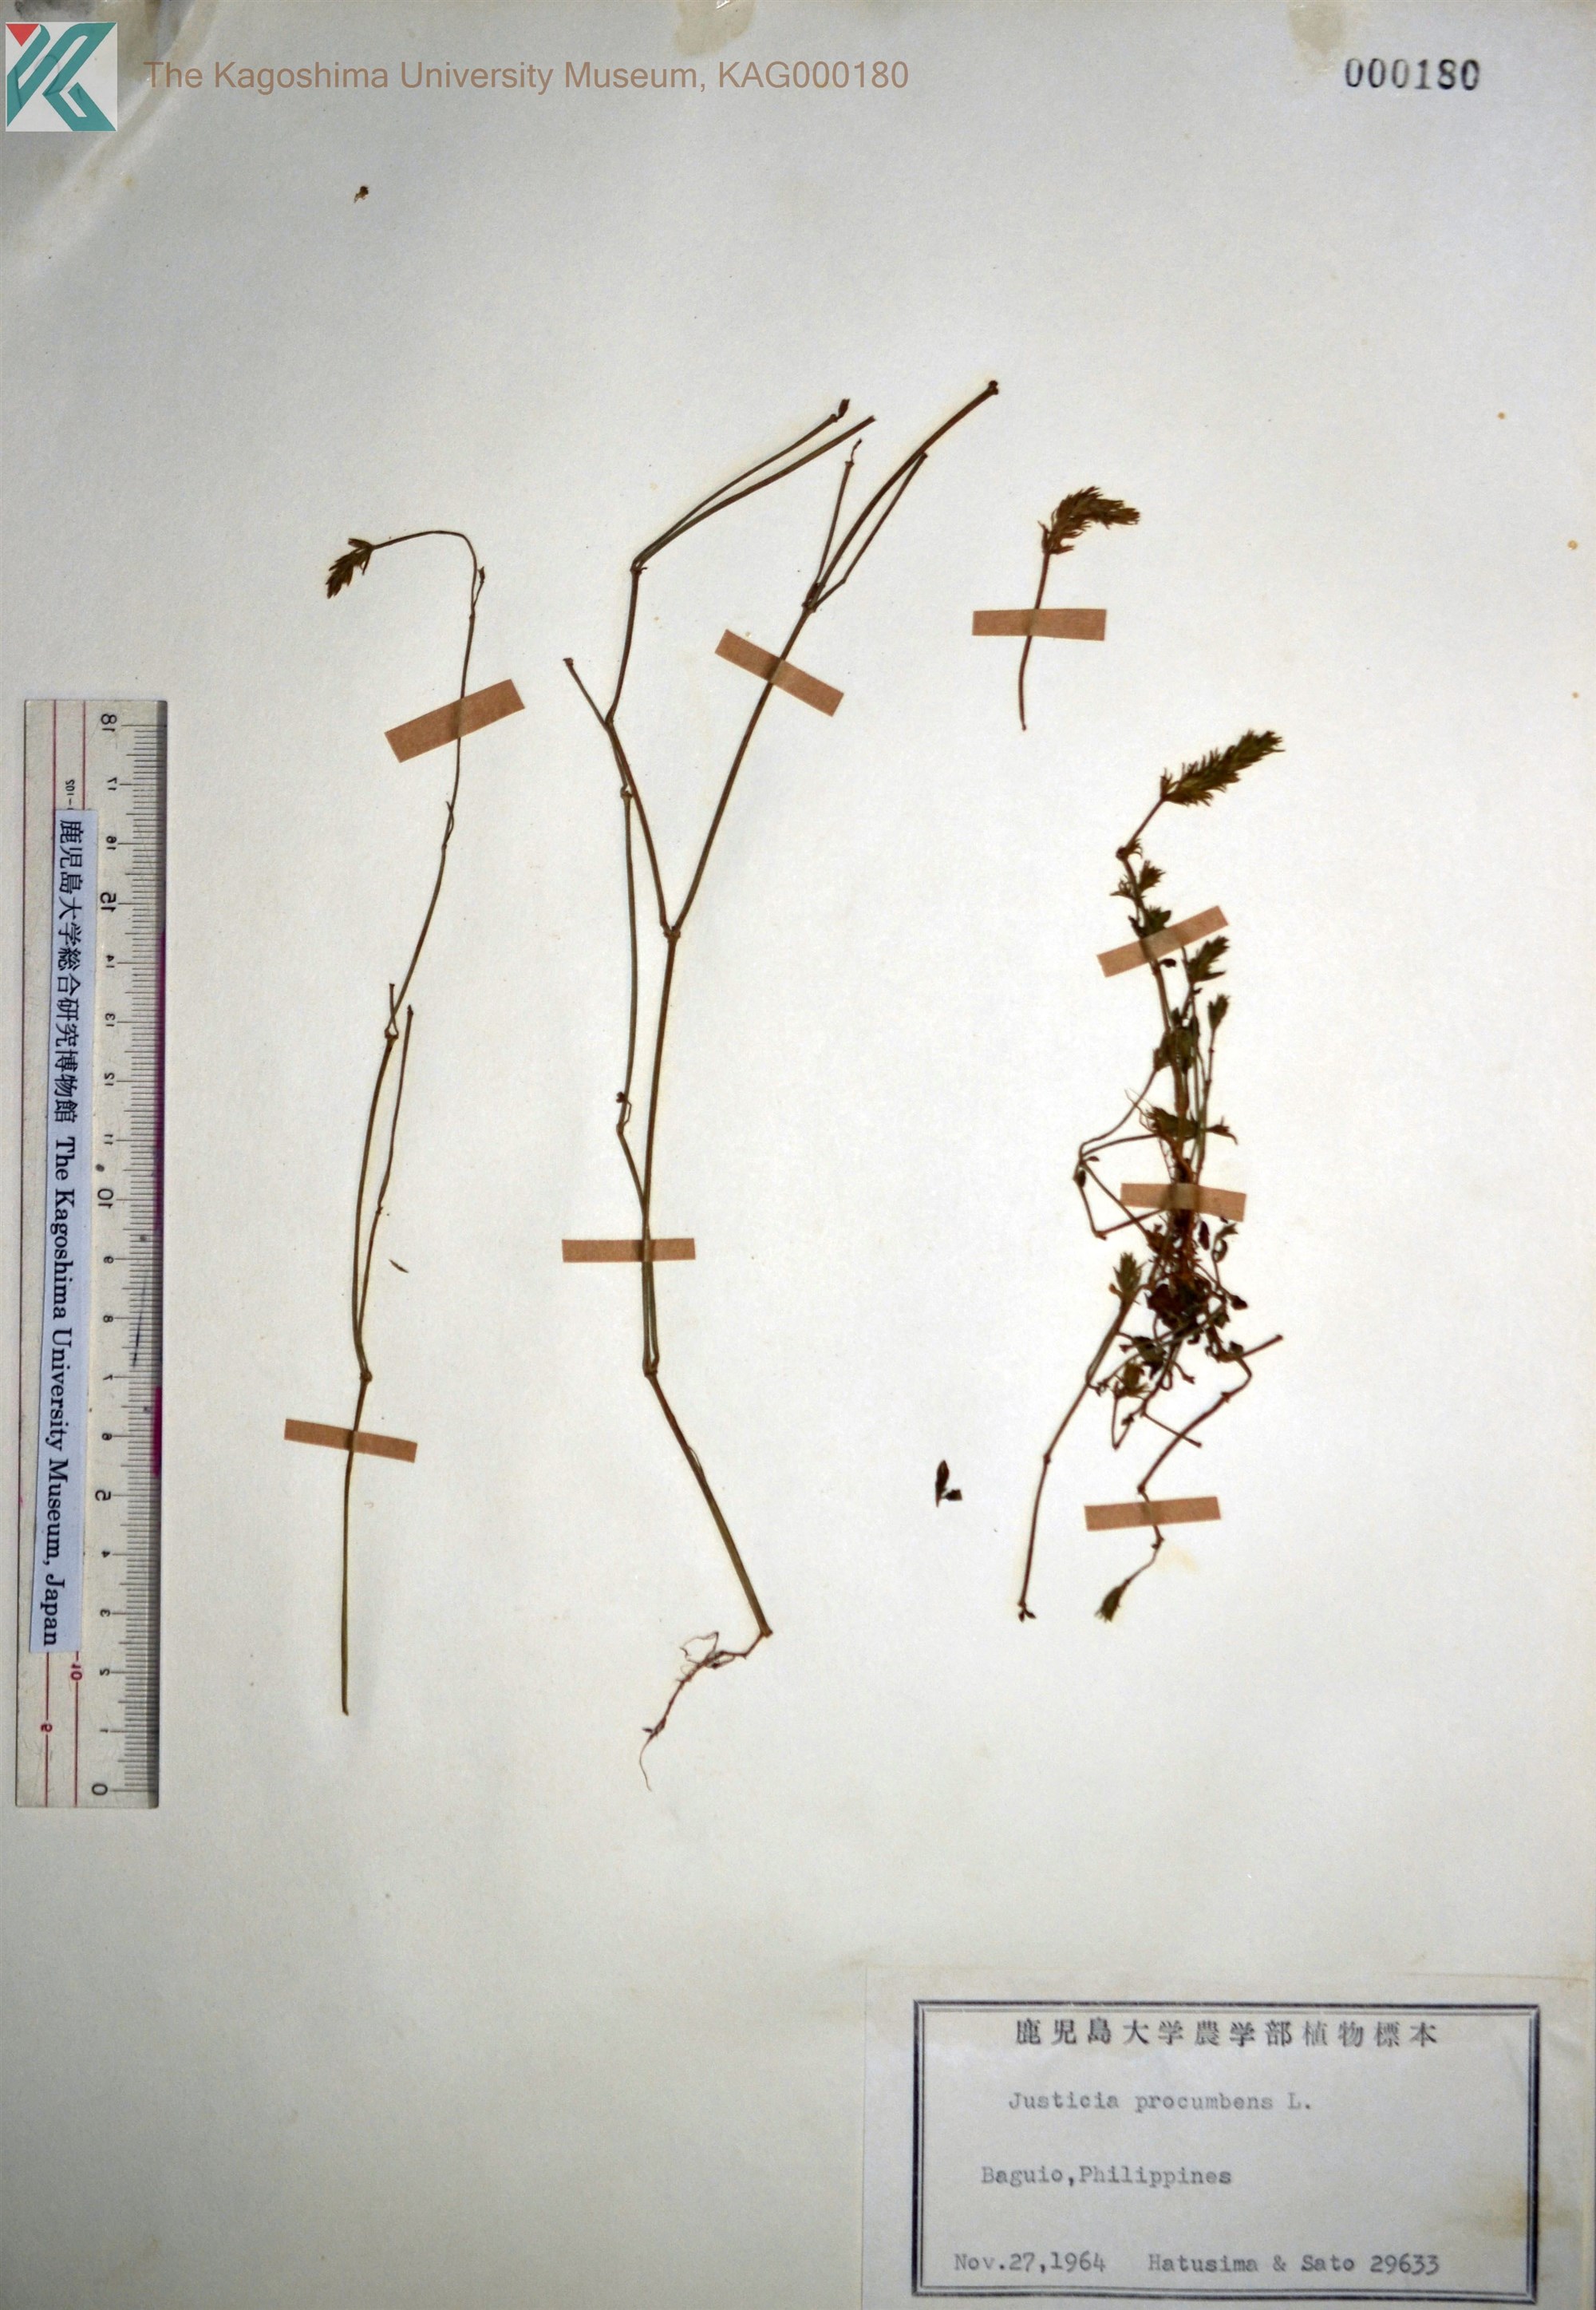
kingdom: Plantae
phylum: Tracheophyta
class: Magnoliopsida
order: Lamiales
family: Acanthaceae
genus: Rostellularia
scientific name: Rostellularia procumbens
